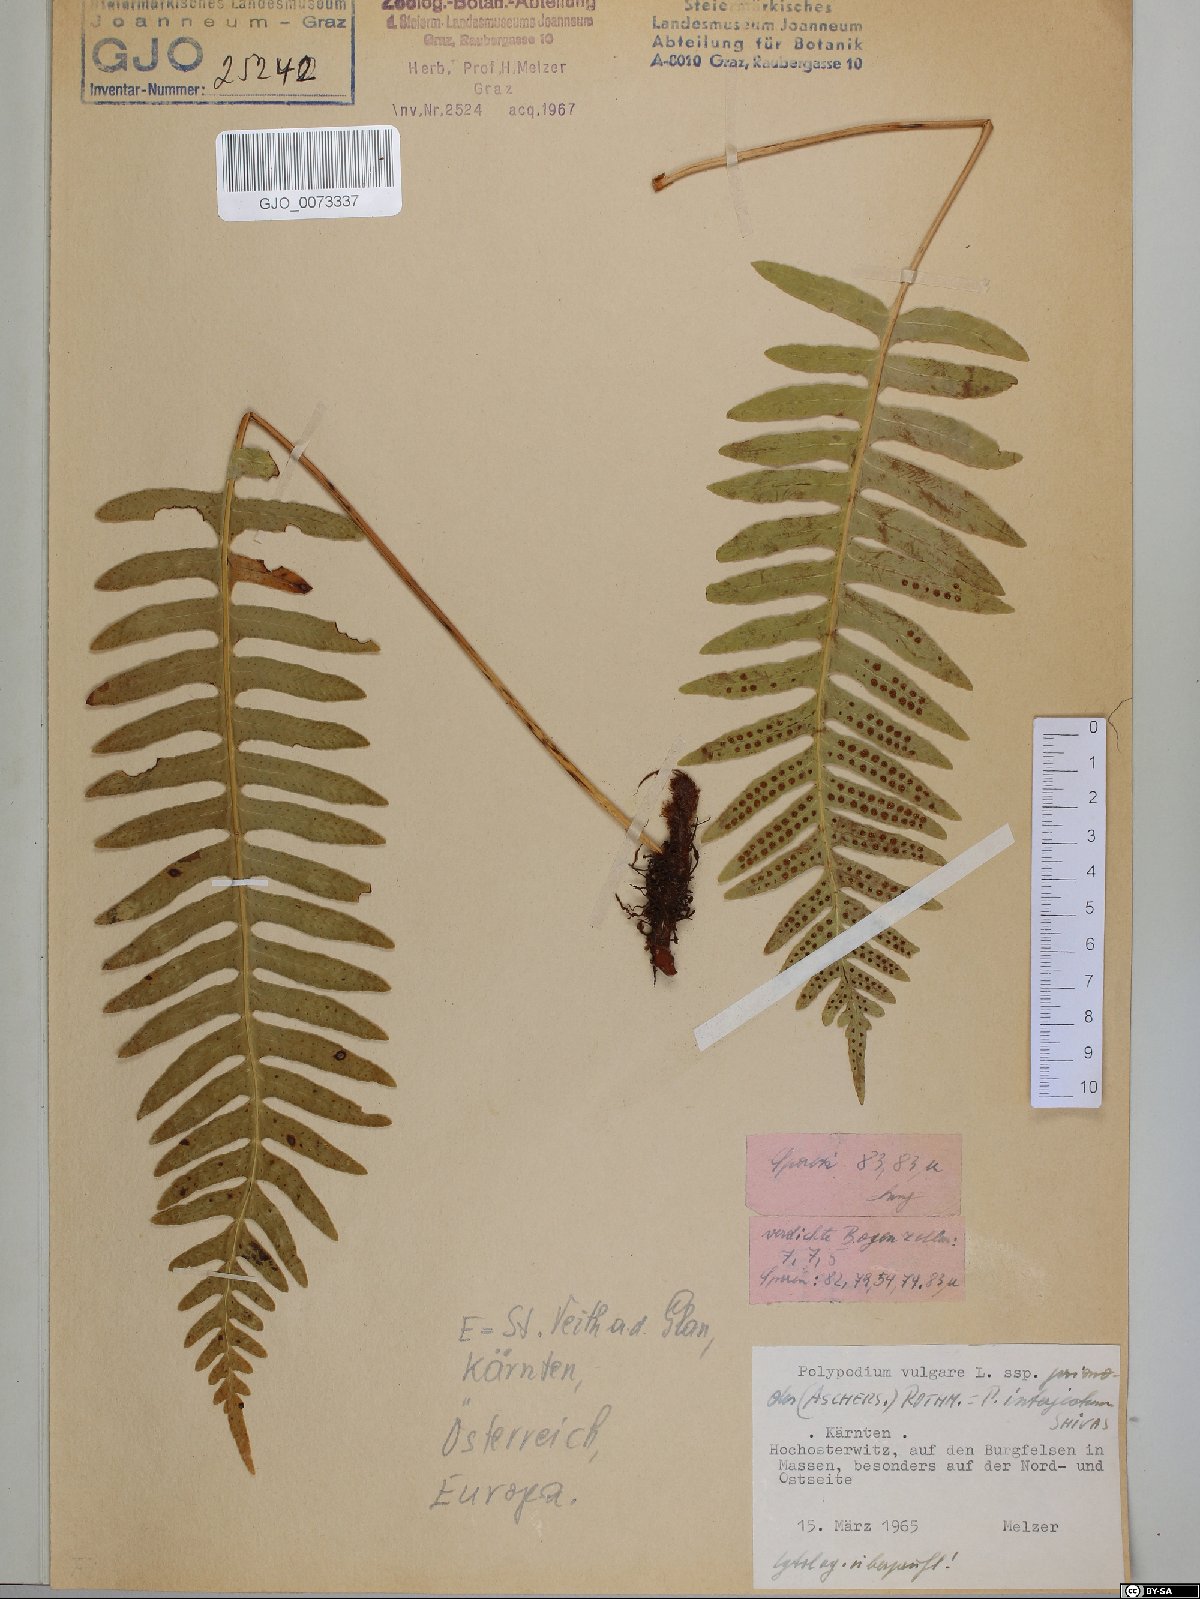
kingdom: Plantae
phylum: Tracheophyta
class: Polypodiopsida
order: Polypodiales
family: Polypodiaceae
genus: Polypodium
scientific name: Polypodium interjectum
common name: Intermediate polypody
